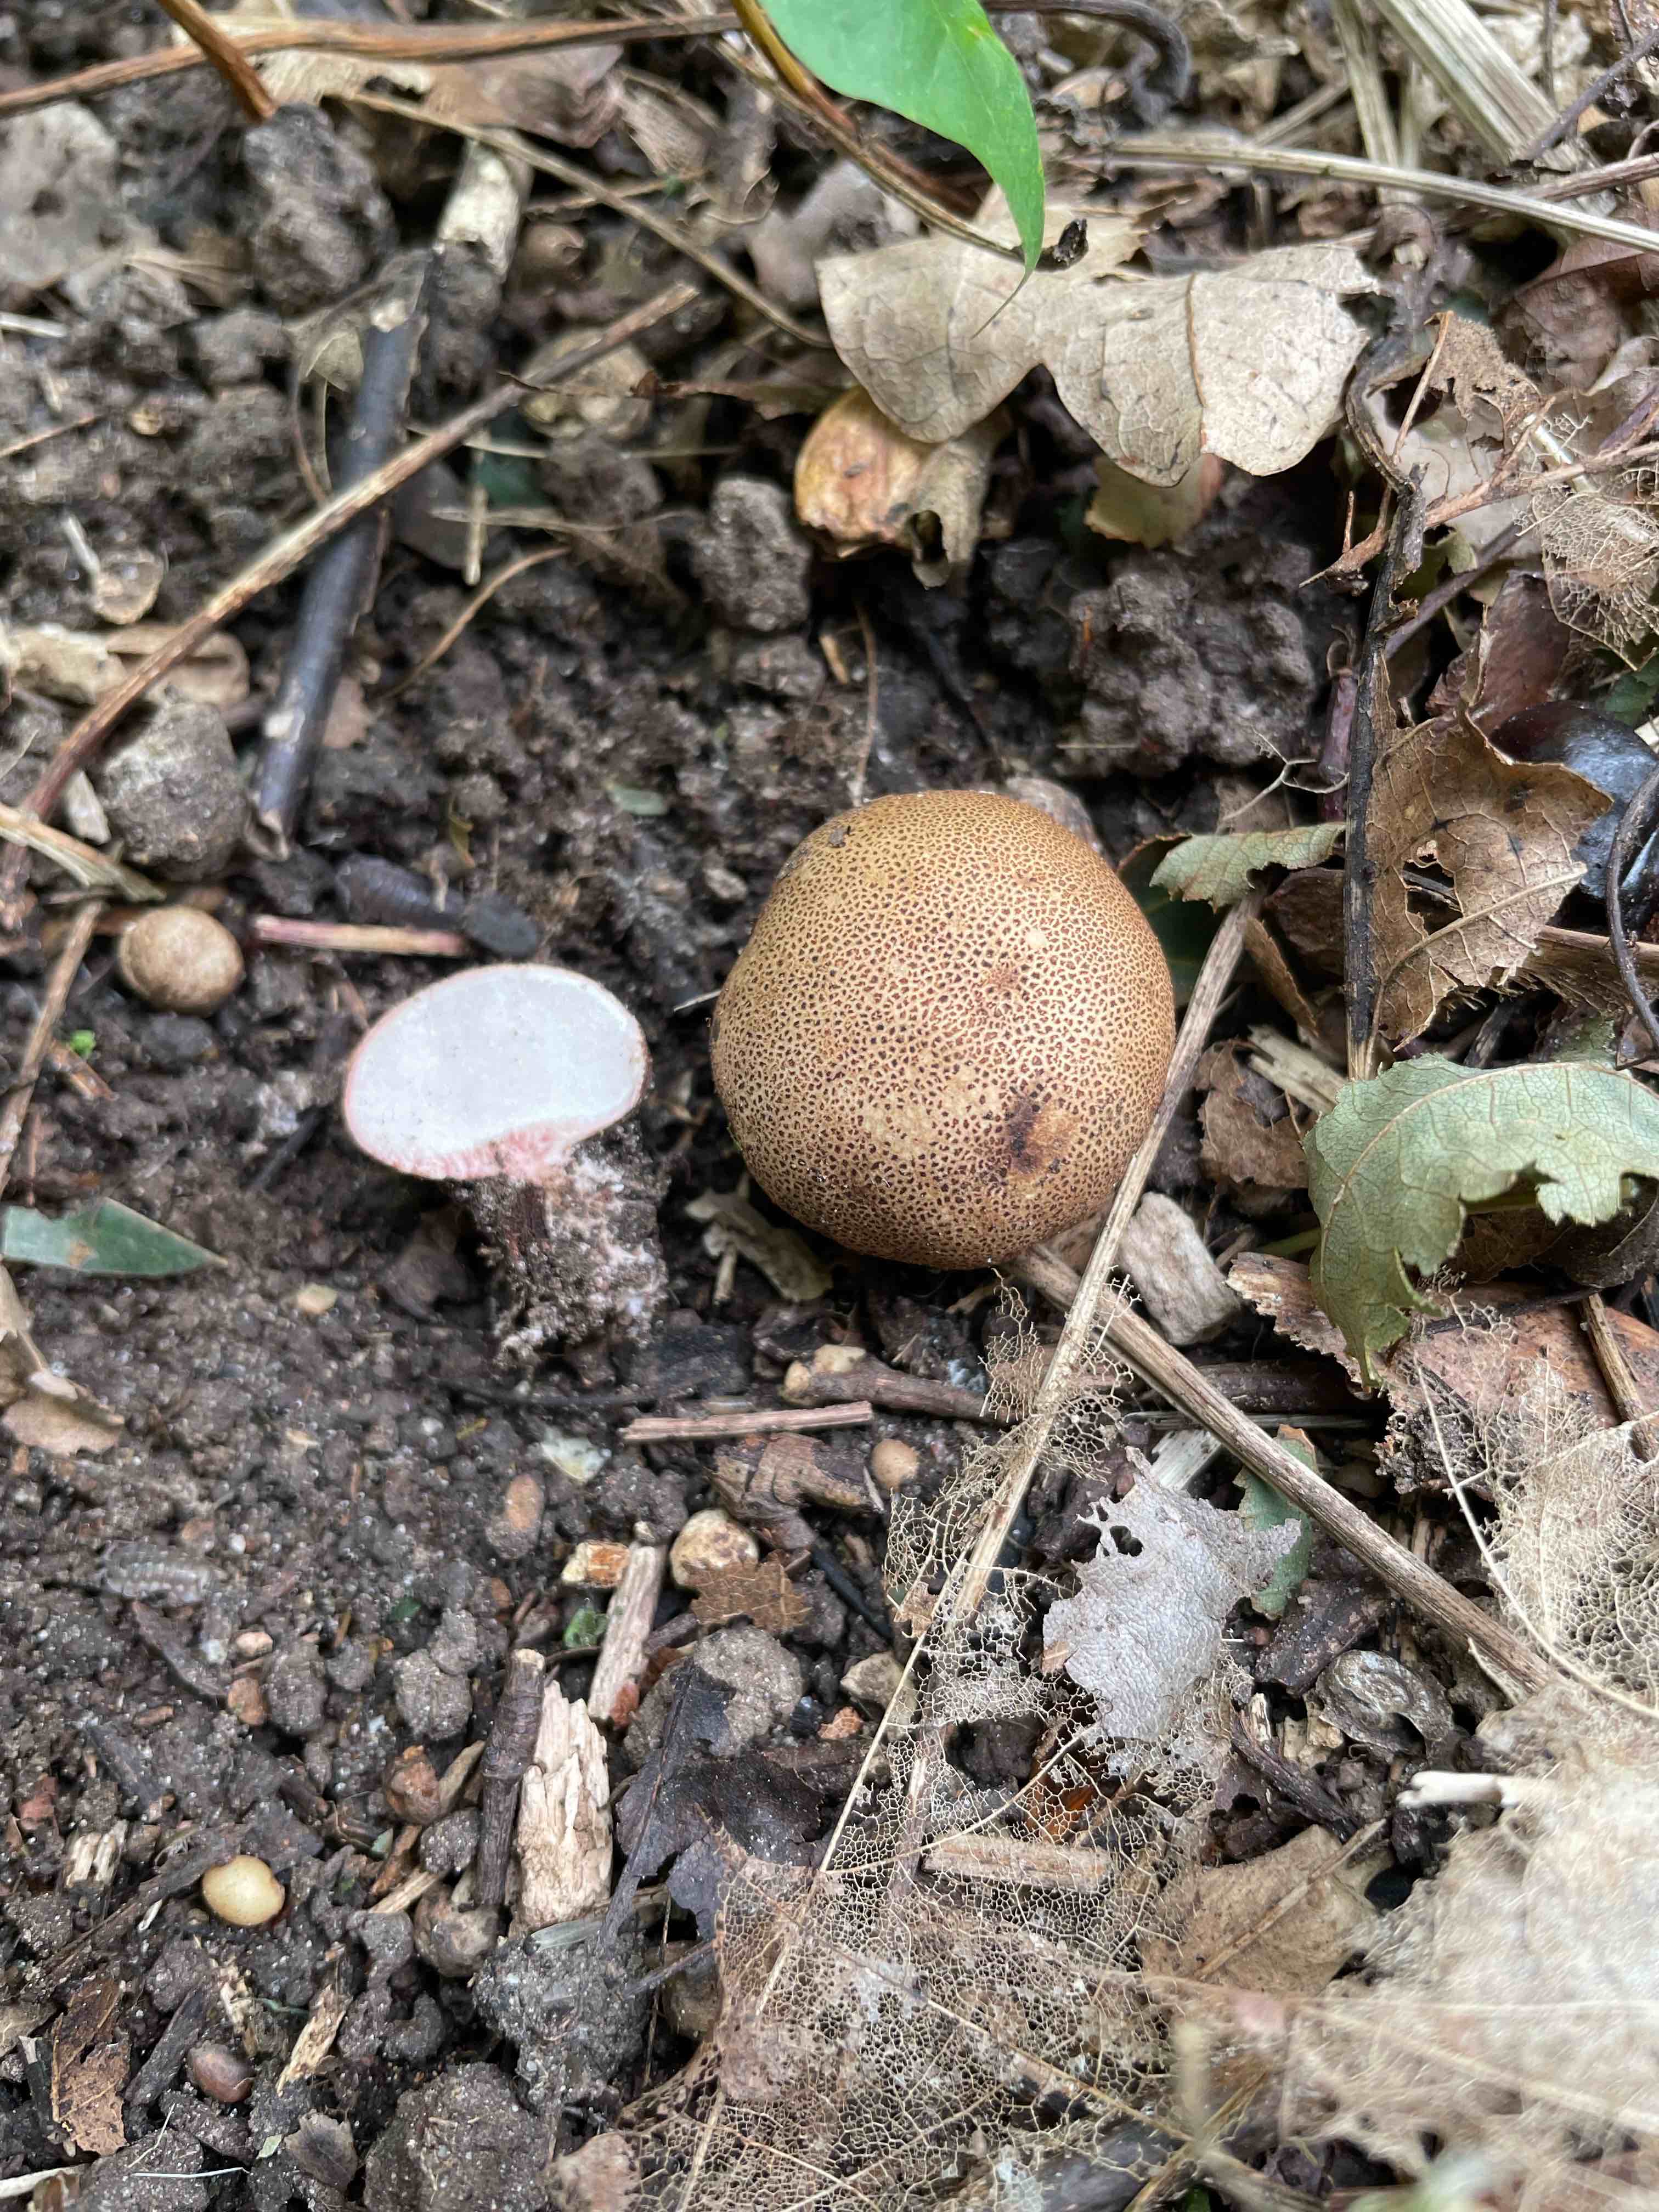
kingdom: Fungi
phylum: Basidiomycota
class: Agaricomycetes
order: Boletales
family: Sclerodermataceae
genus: Scleroderma
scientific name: Scleroderma areolatum
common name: plettet bruskbold
